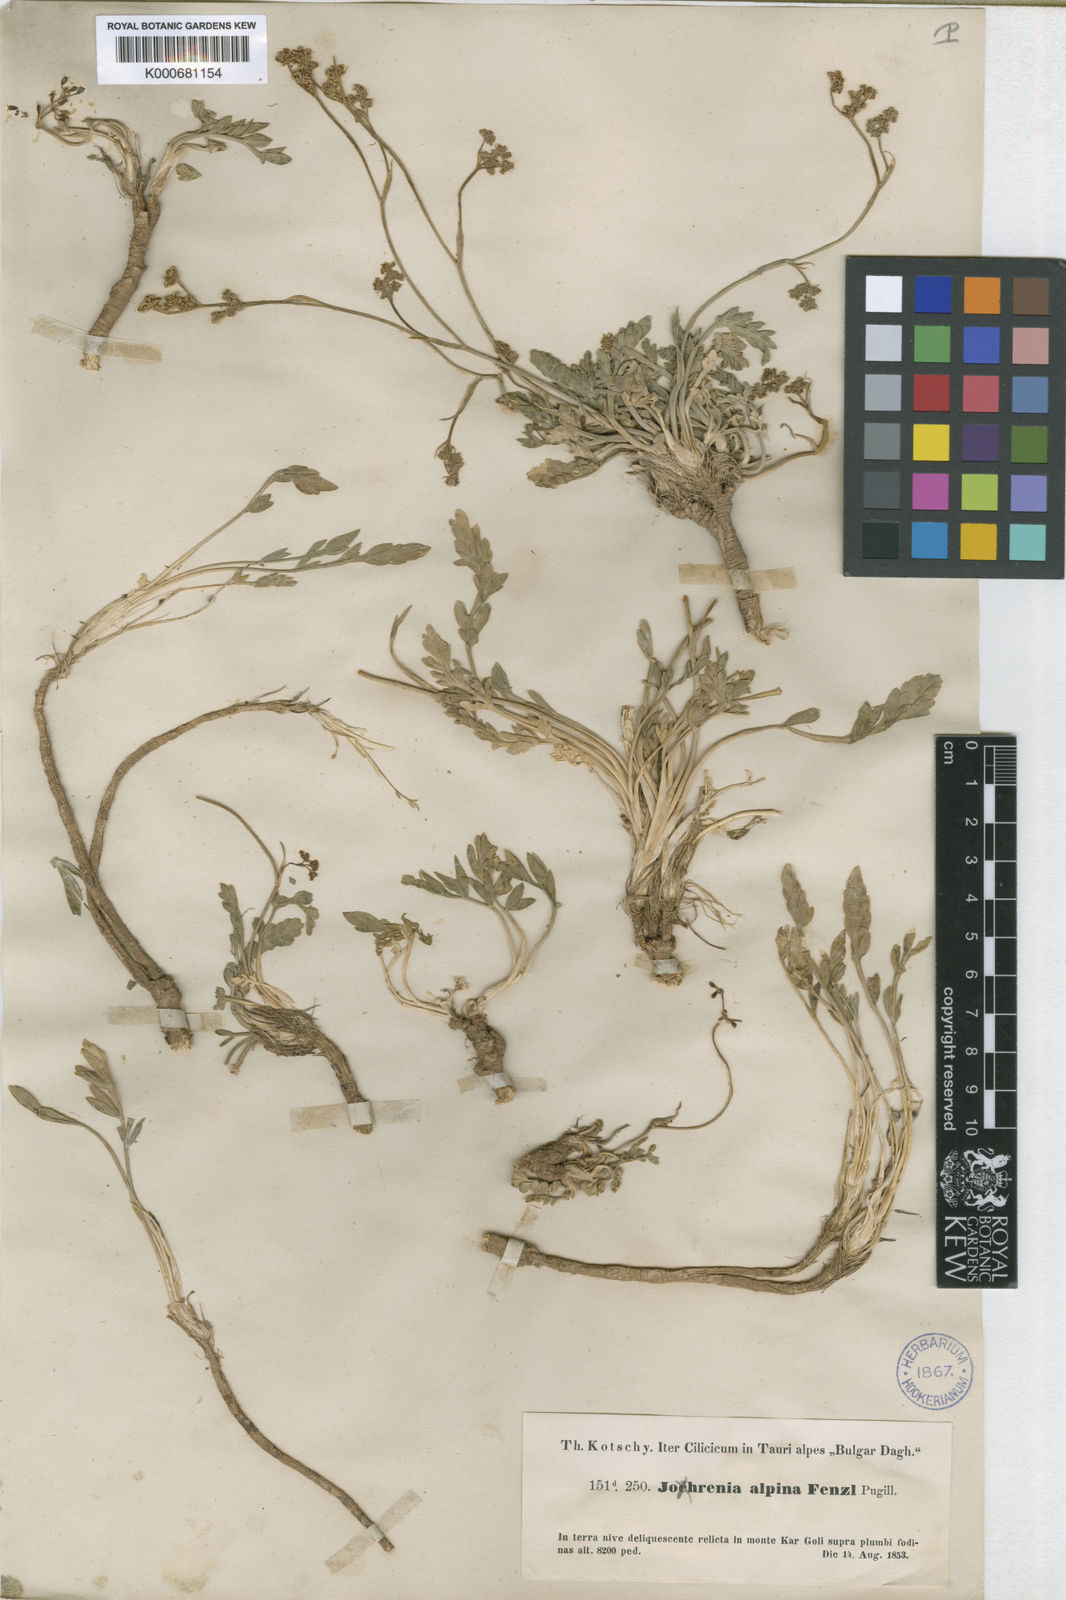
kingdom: Plantae
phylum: Tracheophyta
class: Magnoliopsida
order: Apiales
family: Apiaceae
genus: Dichoropetalum
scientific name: Dichoropetalum alpinum
